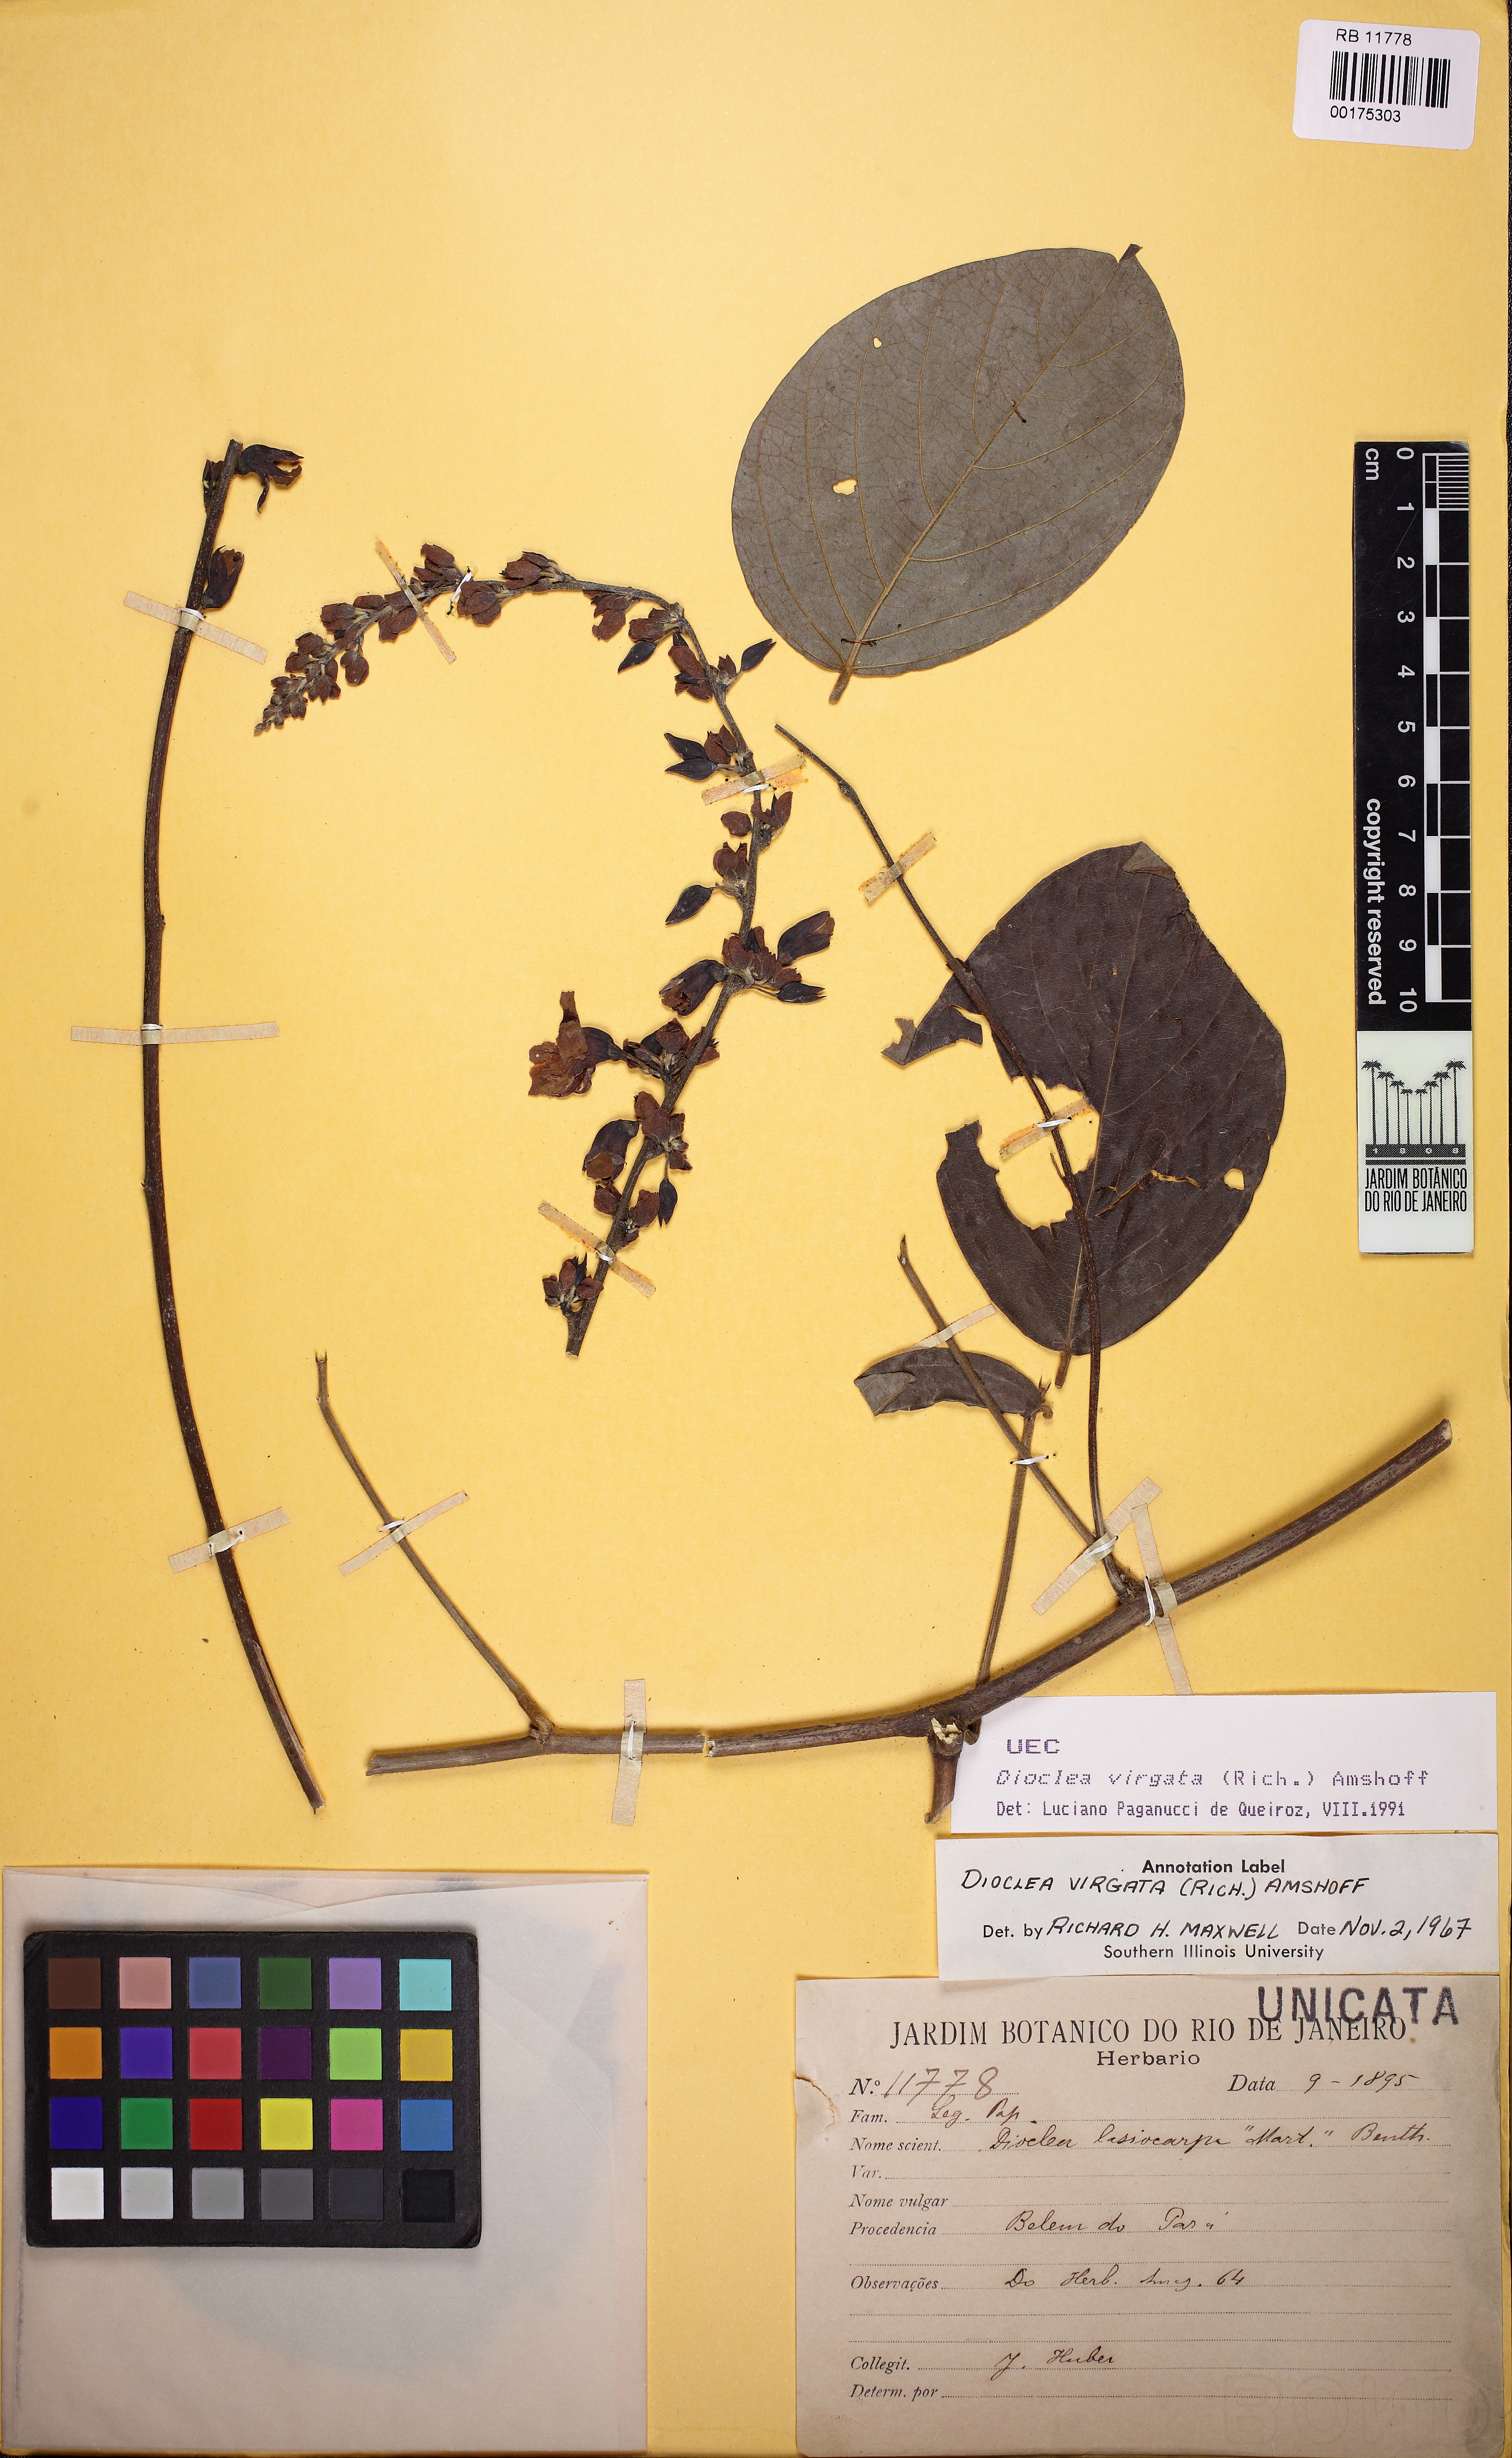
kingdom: Plantae
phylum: Tracheophyta
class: Magnoliopsida
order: Fabales
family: Fabaceae
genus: Dioclea
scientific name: Dioclea virgata
